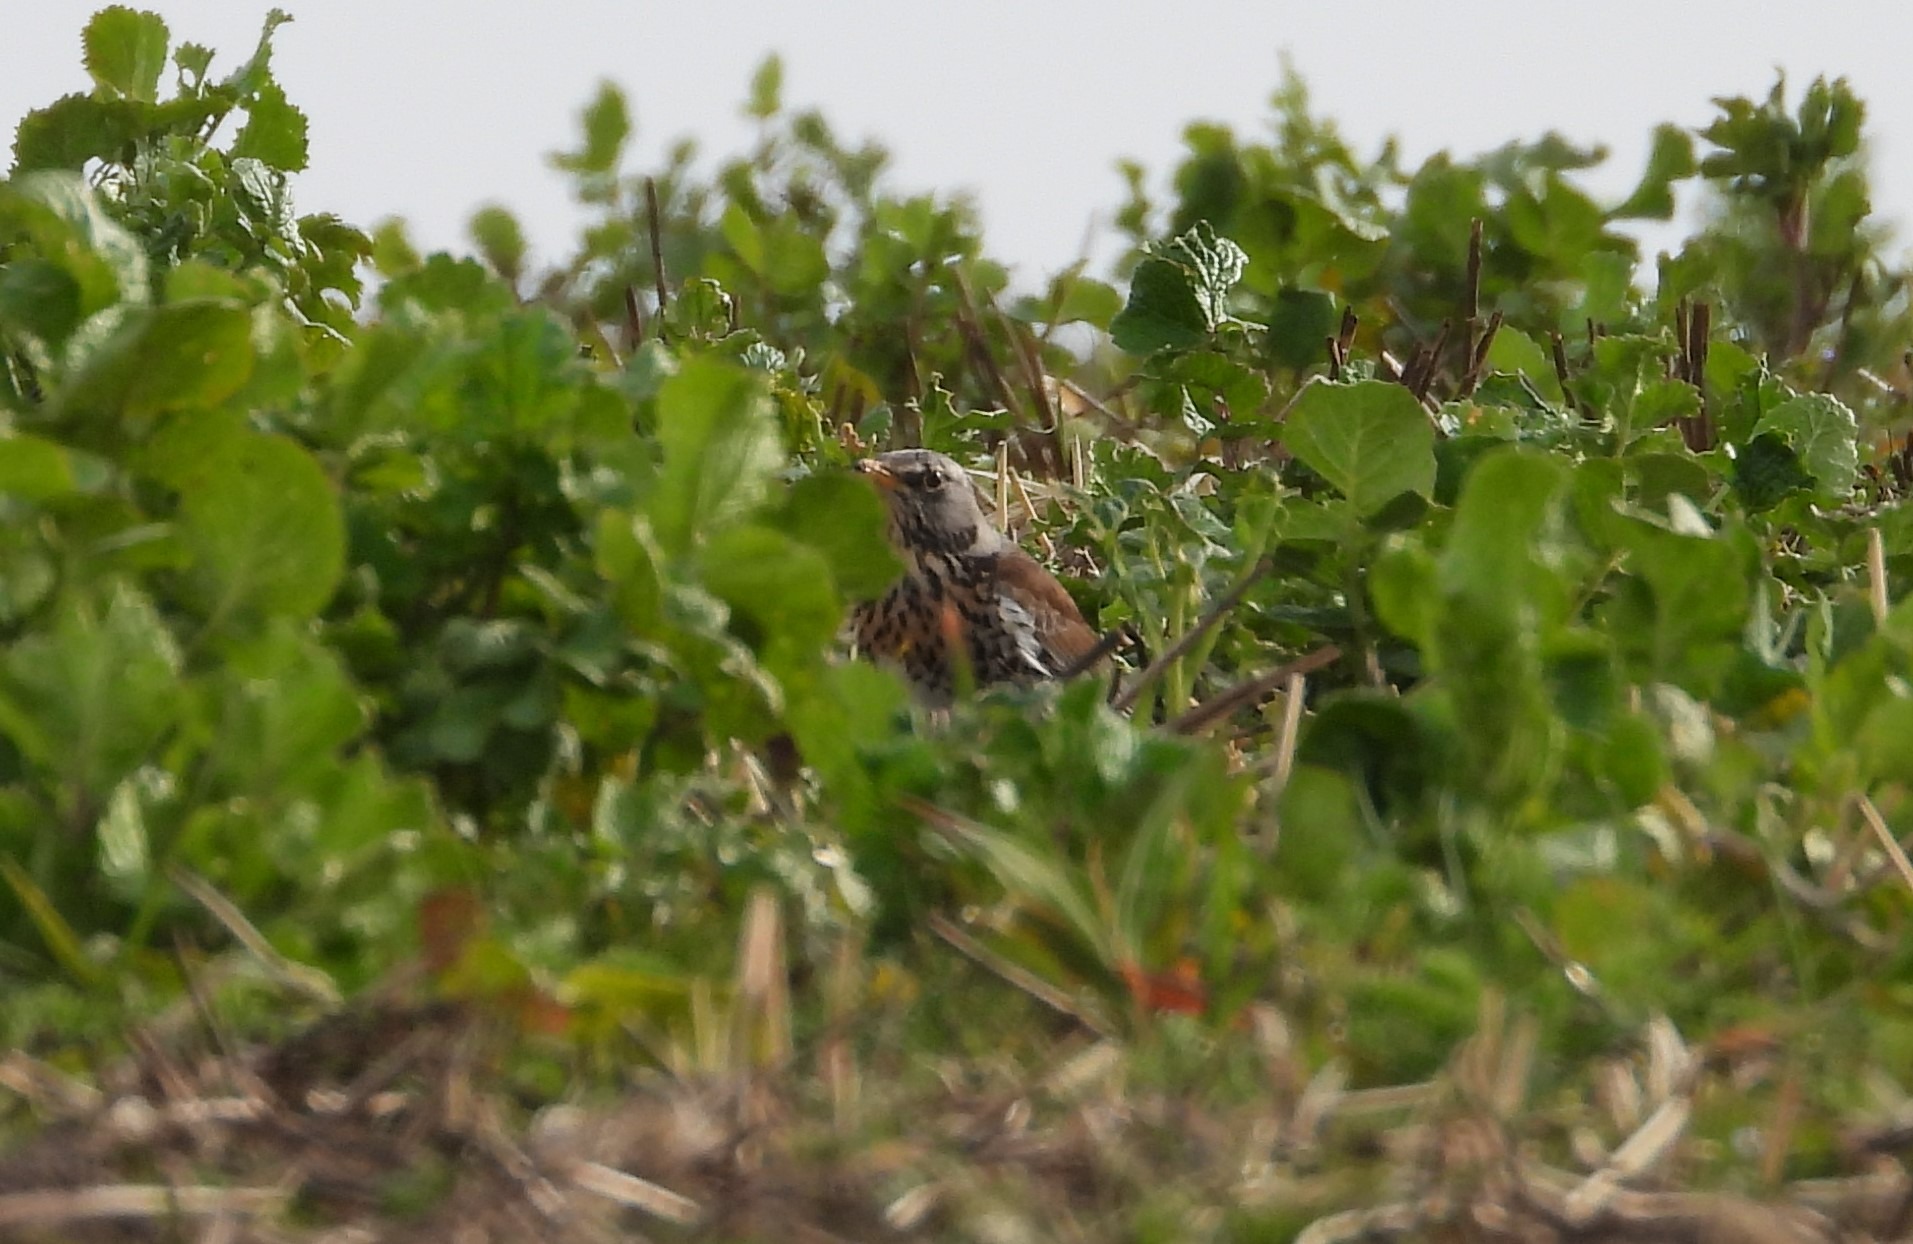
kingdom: Animalia
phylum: Chordata
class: Aves
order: Passeriformes
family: Turdidae
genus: Turdus
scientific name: Turdus pilaris
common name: Sjagger
